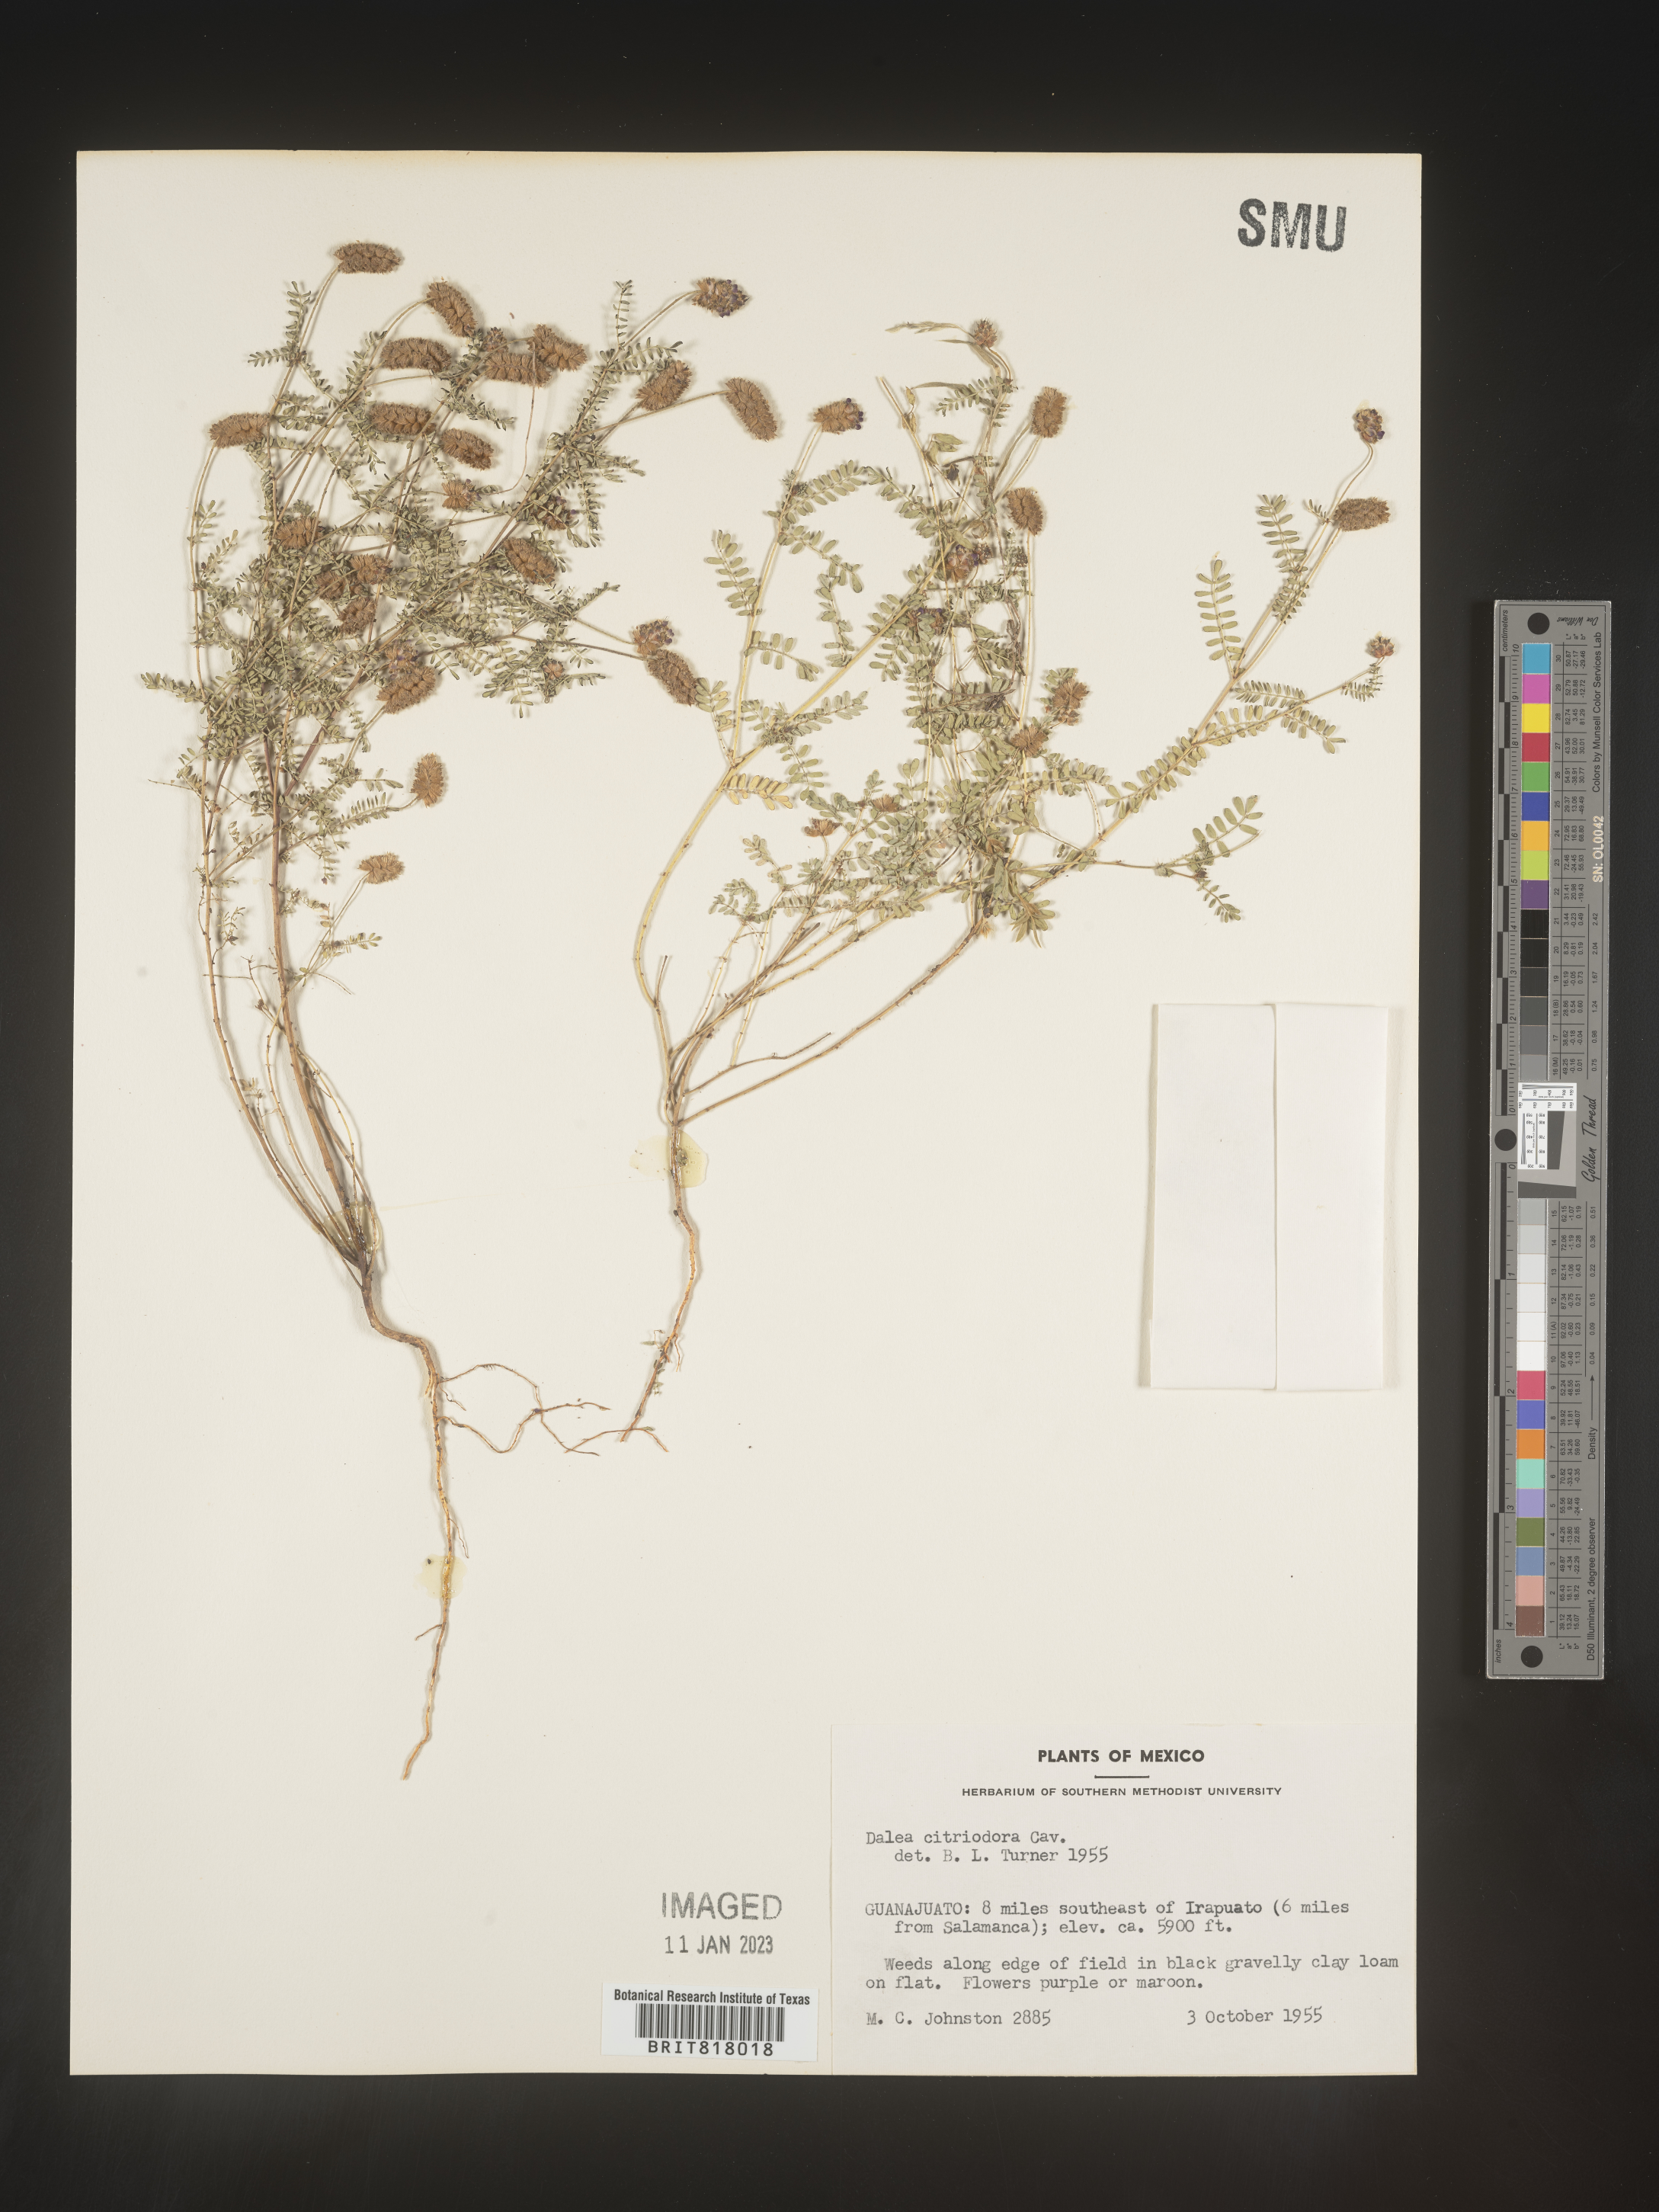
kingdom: Plantae
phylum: Tracheophyta
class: Magnoliopsida
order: Fabales
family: Fabaceae
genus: Dalea
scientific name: Dalea
